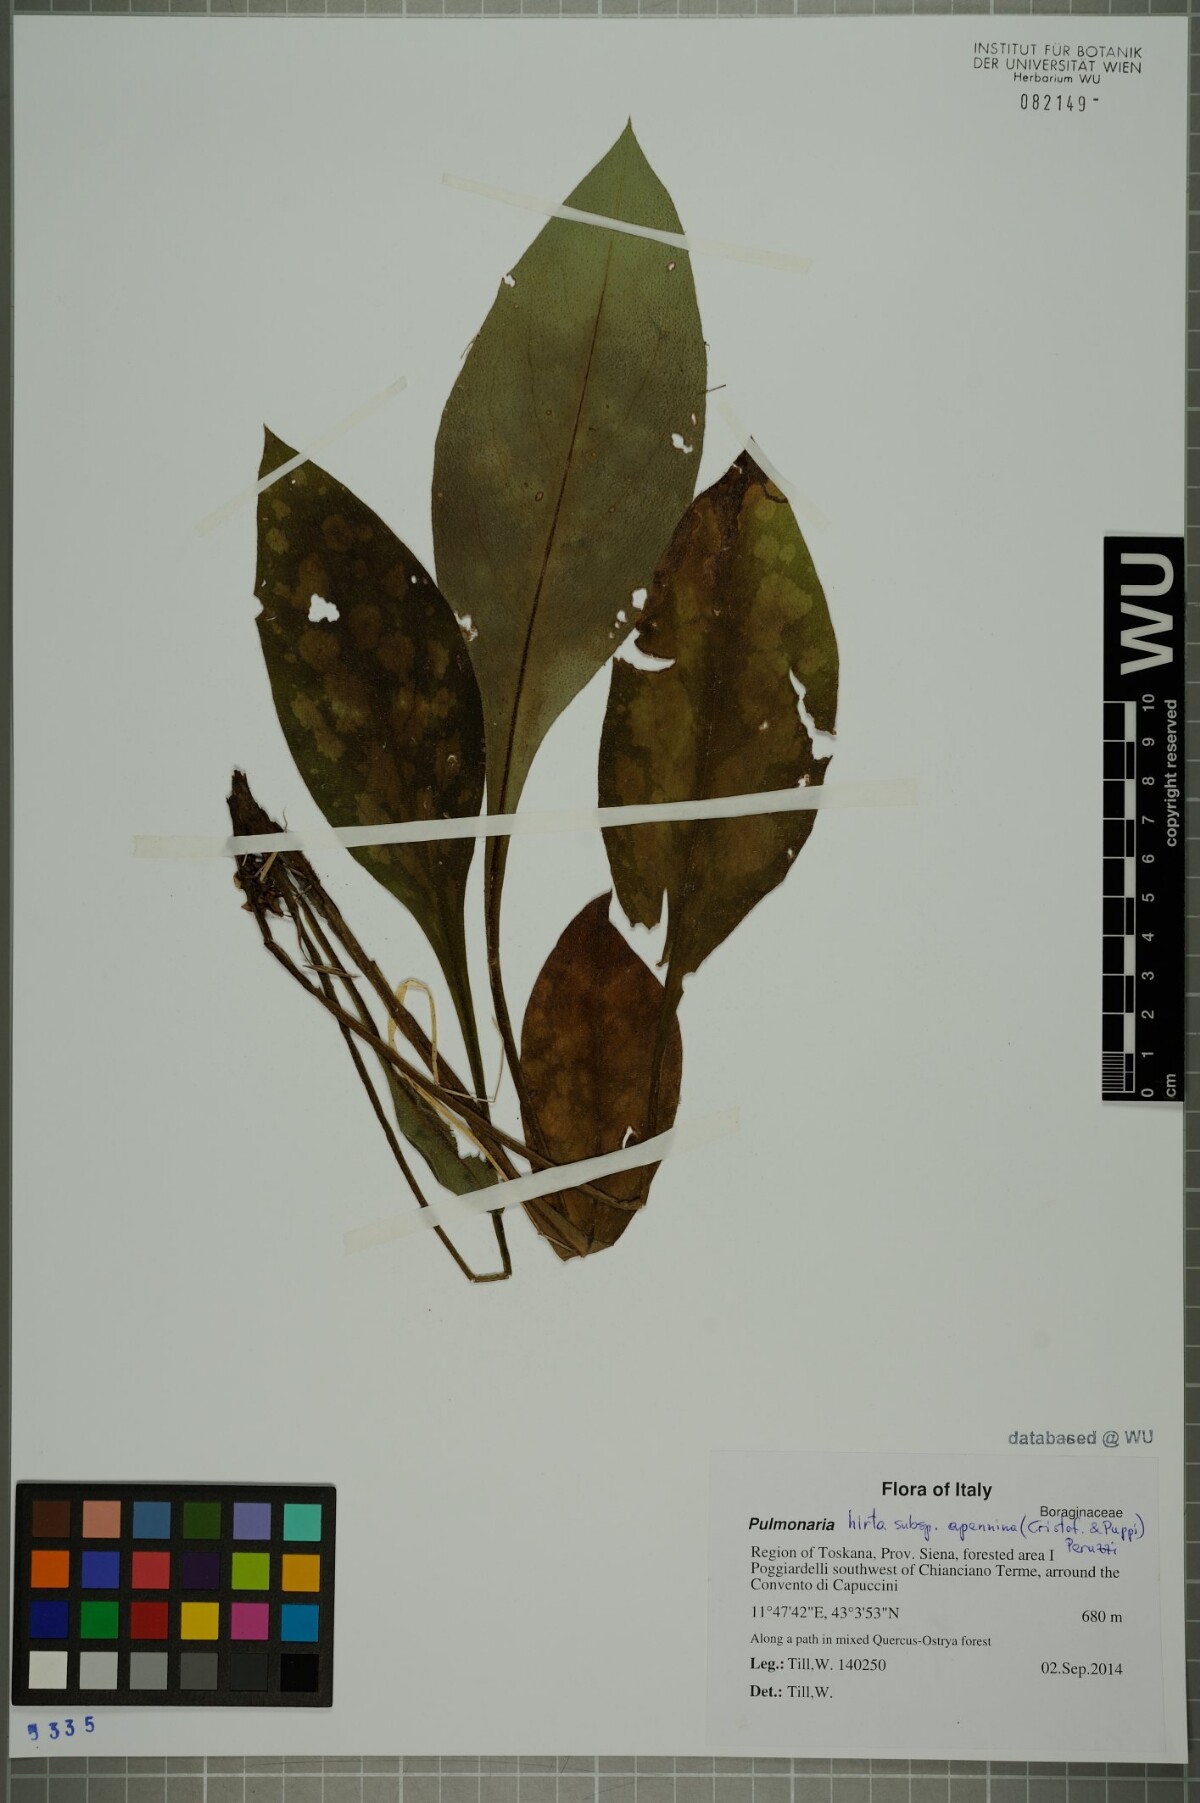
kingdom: Plantae
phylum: Tracheophyta
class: Magnoliopsida
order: Boraginales
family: Boraginaceae
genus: Pulmonaria
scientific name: Pulmonaria hirta
